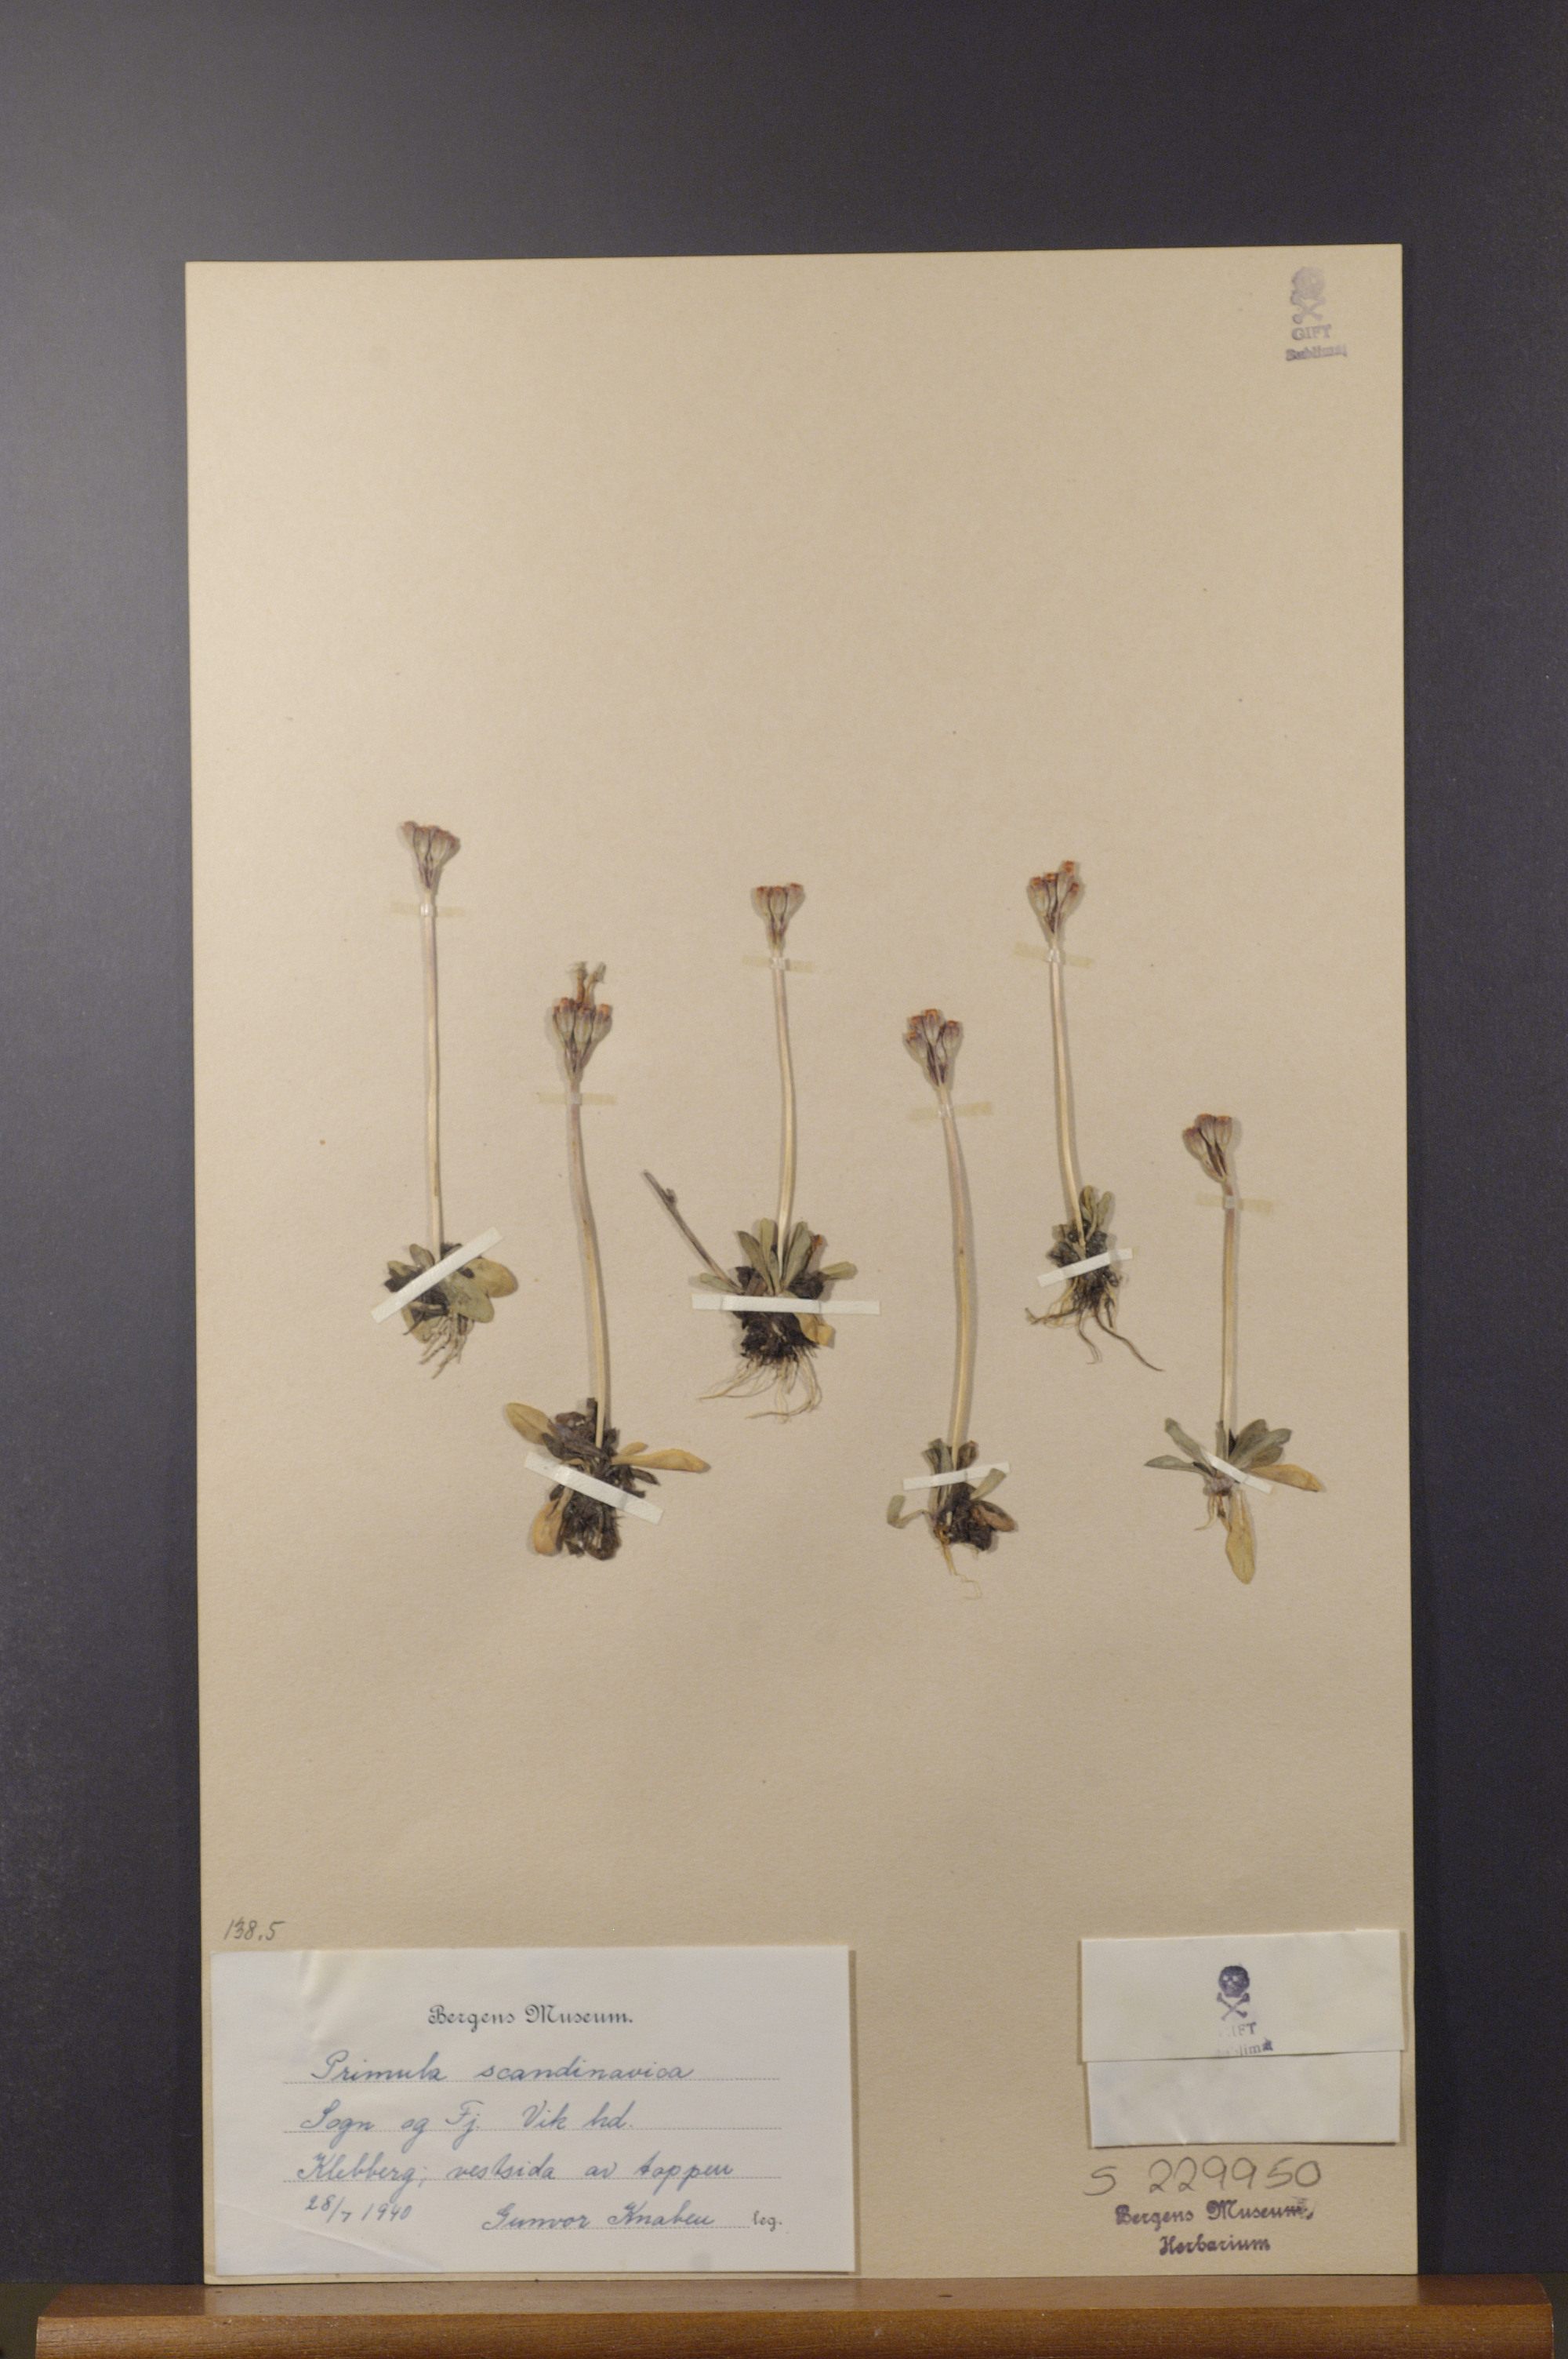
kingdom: Plantae
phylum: Tracheophyta
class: Magnoliopsida
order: Ericales
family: Primulaceae
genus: Primula
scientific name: Primula scandinavica
